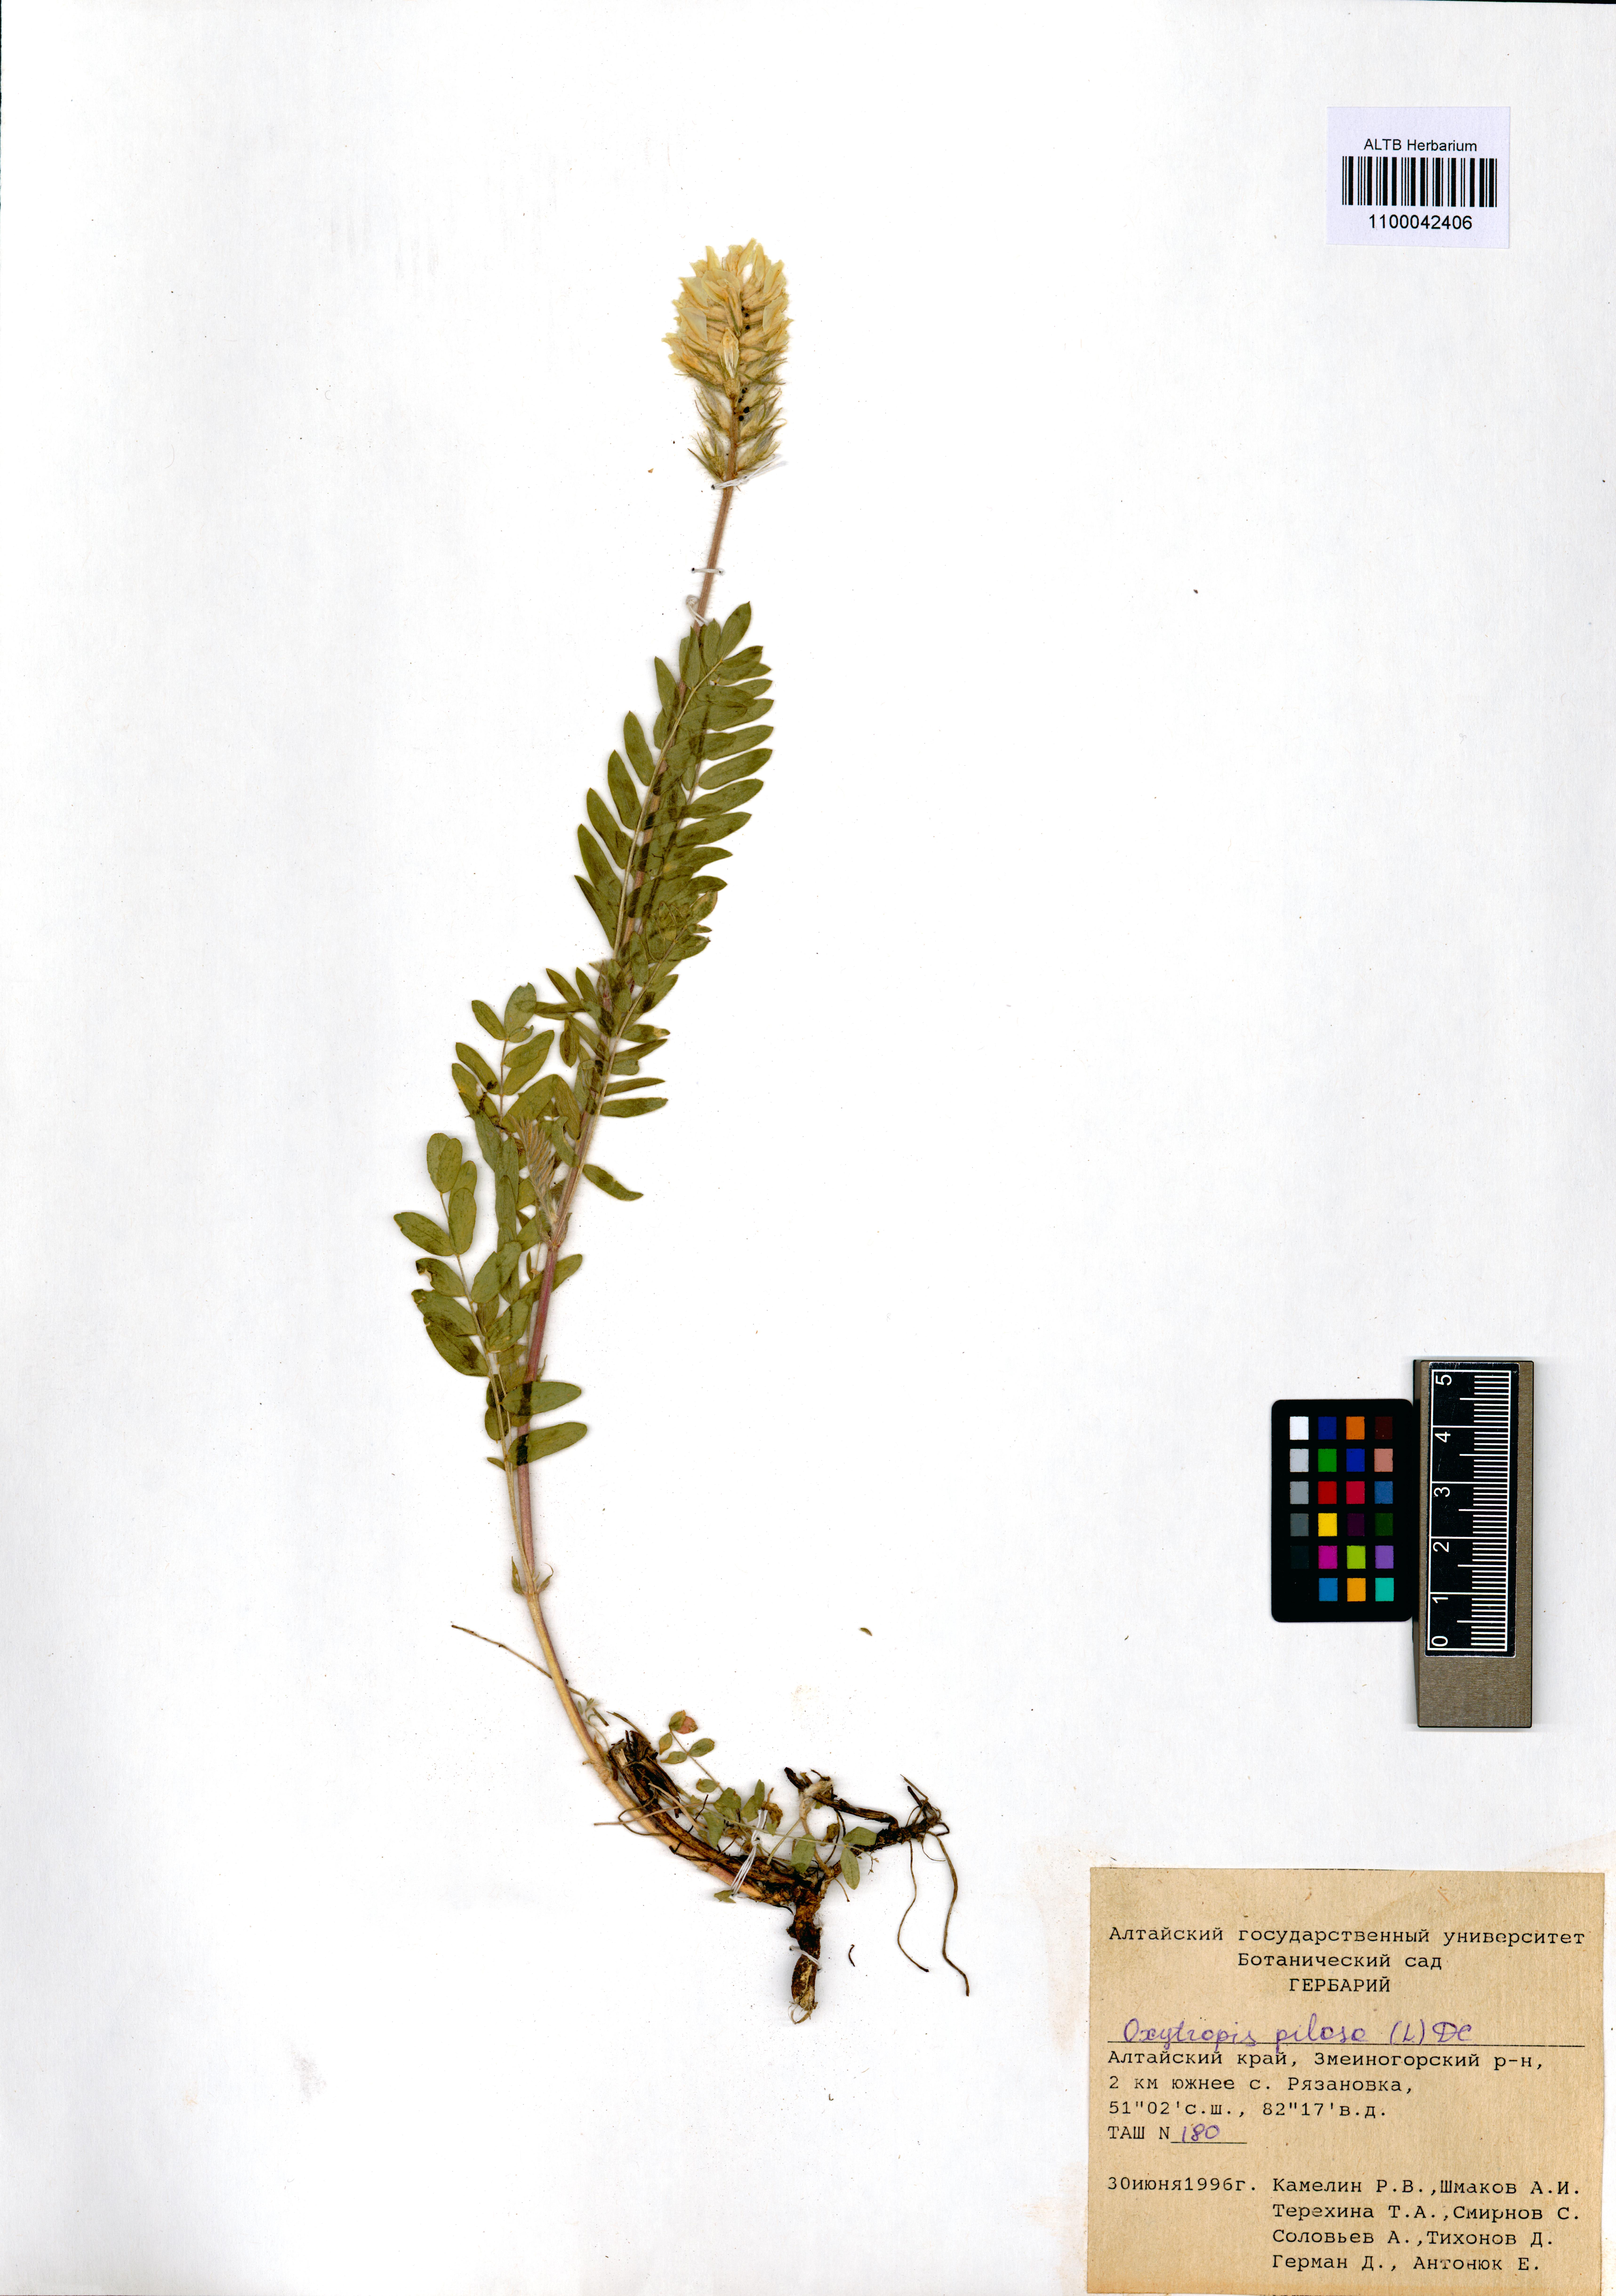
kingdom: Plantae
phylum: Tracheophyta
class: Magnoliopsida
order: Fabales
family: Fabaceae
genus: Oxytropis
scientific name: Oxytropis pilosa
